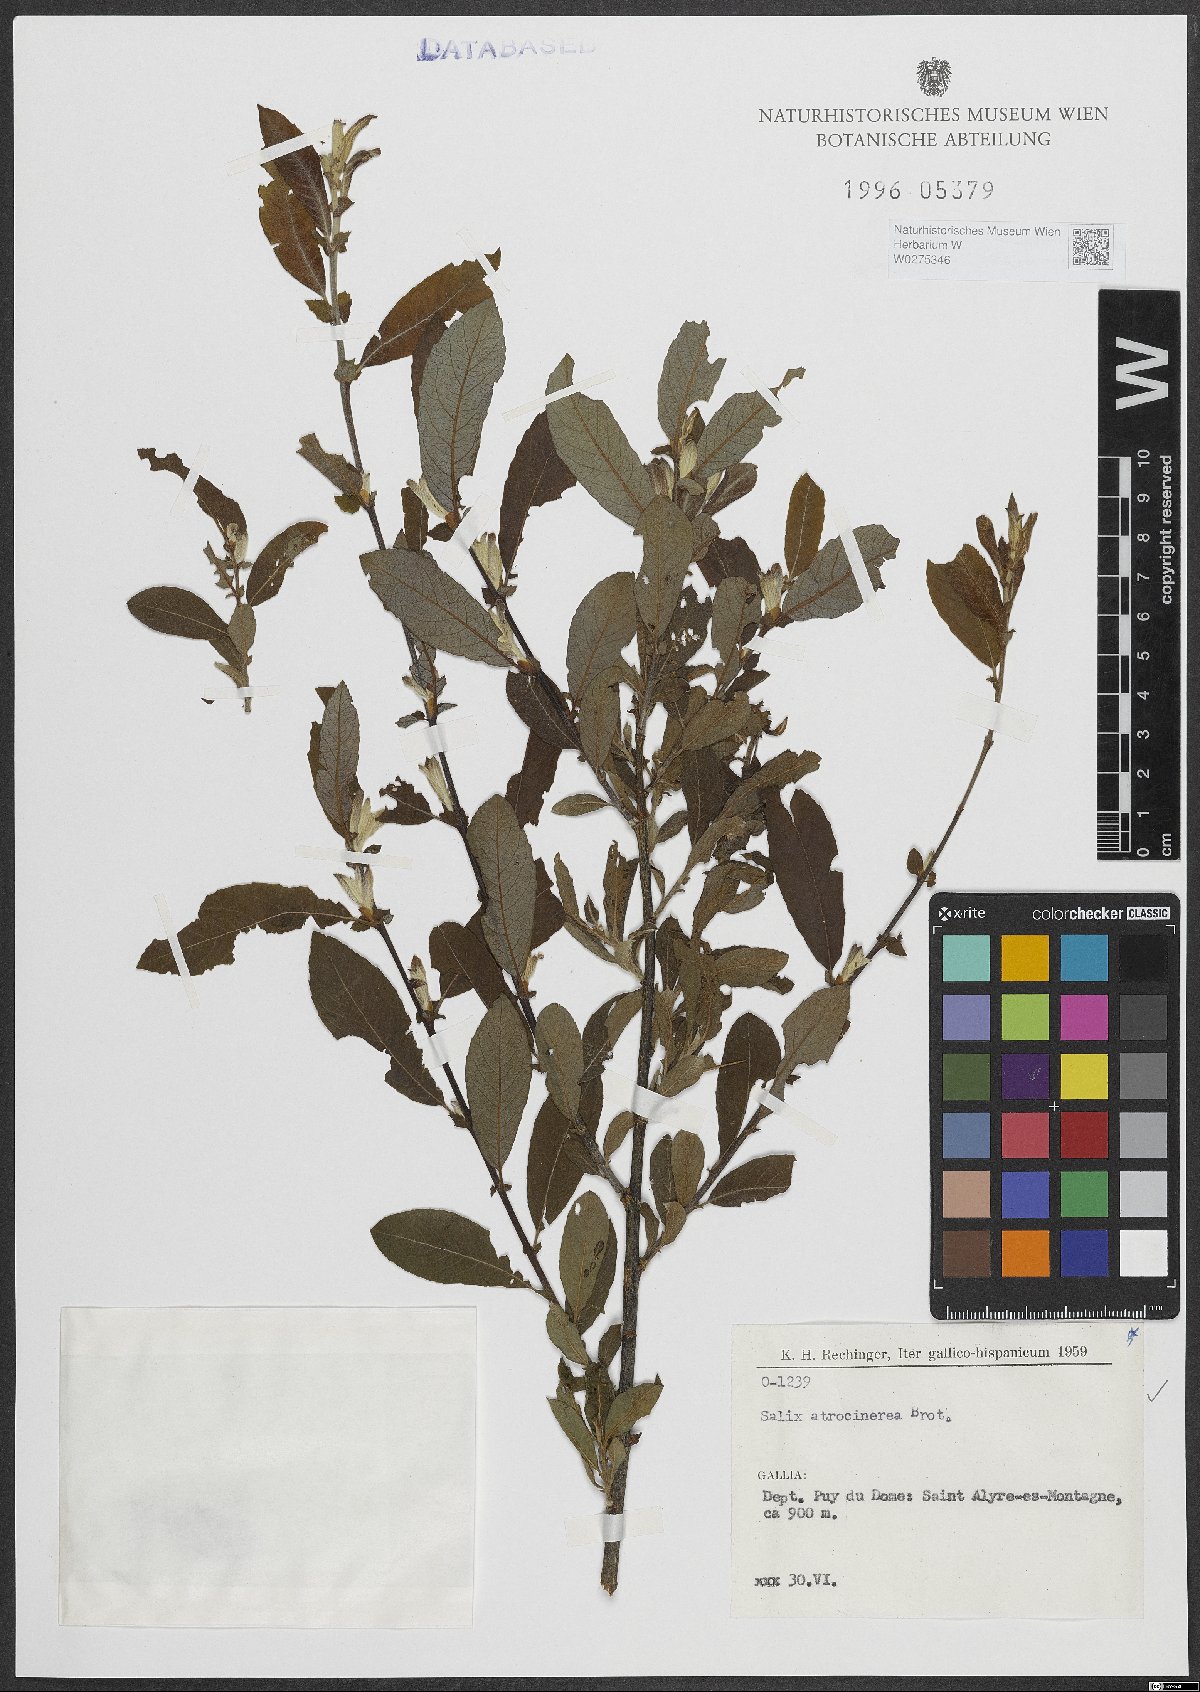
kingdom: Plantae
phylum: Tracheophyta
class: Magnoliopsida
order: Malpighiales
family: Salicaceae
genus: Salix
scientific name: Salix atrocinerea
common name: Rusty willow
